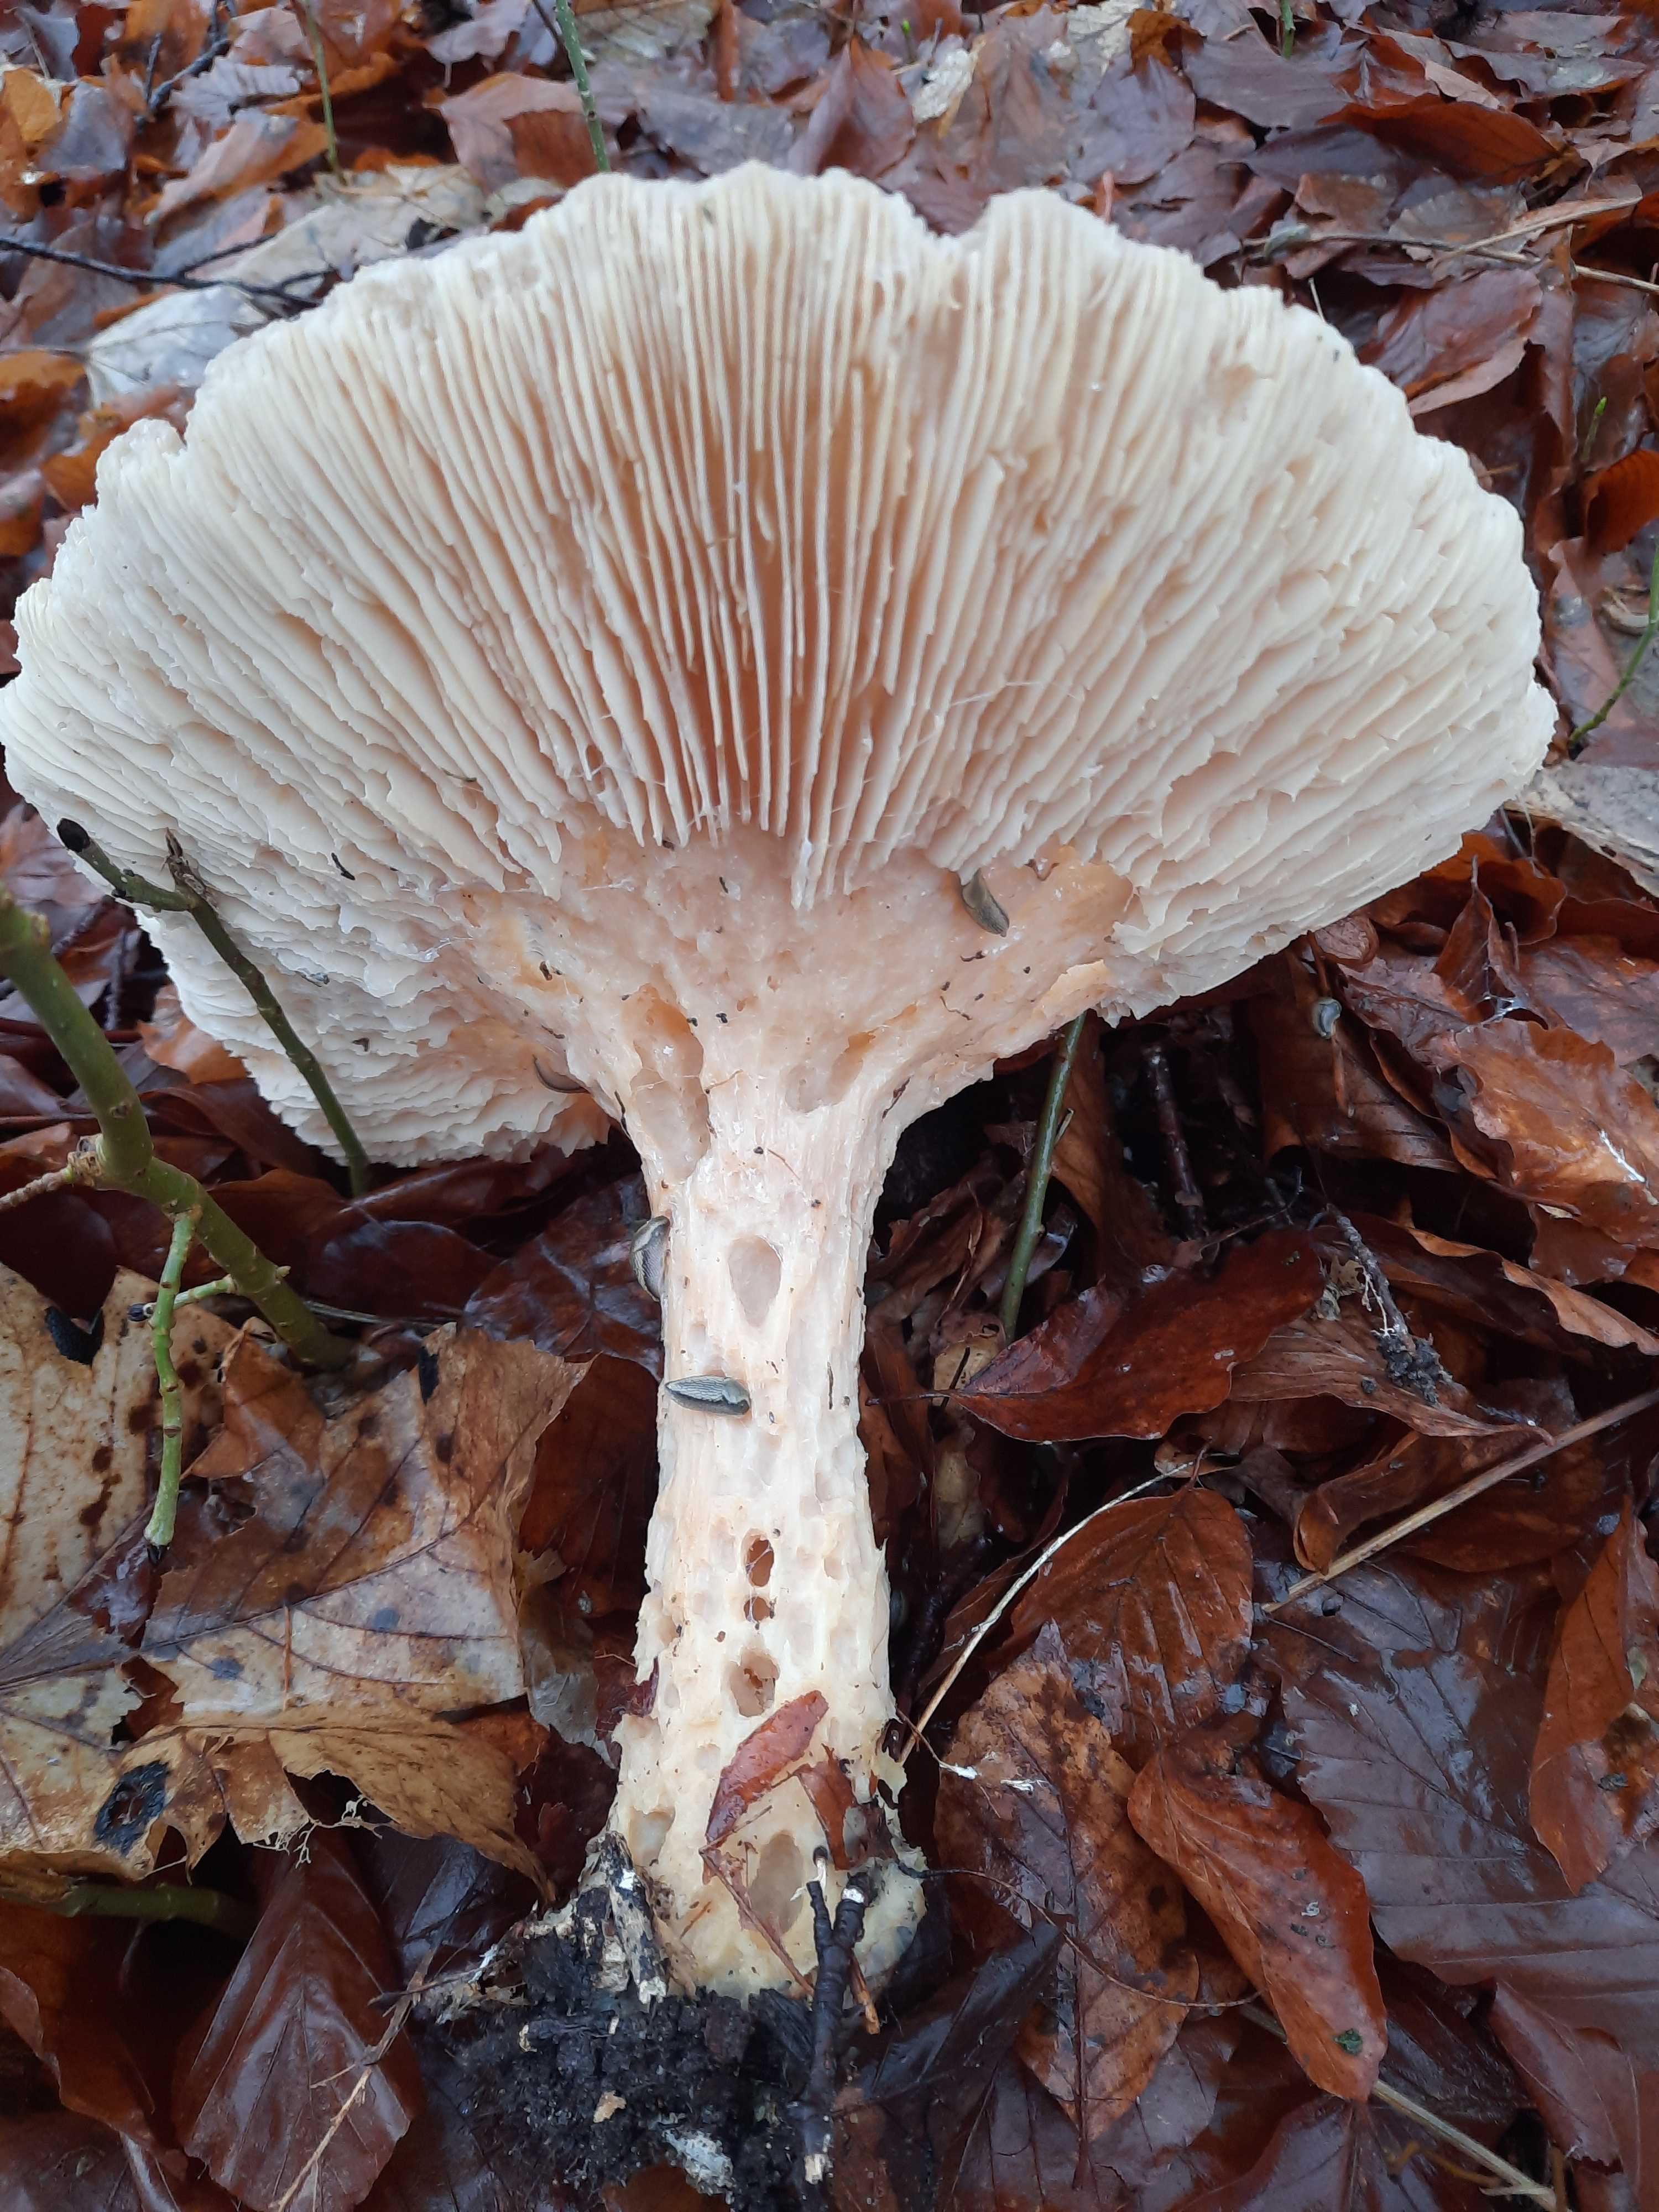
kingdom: Fungi
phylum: Basidiomycota
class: Agaricomycetes
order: Agaricales
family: Tricholomataceae
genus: Infundibulicybe
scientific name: Infundibulicybe geotropa
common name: stor tragthat
